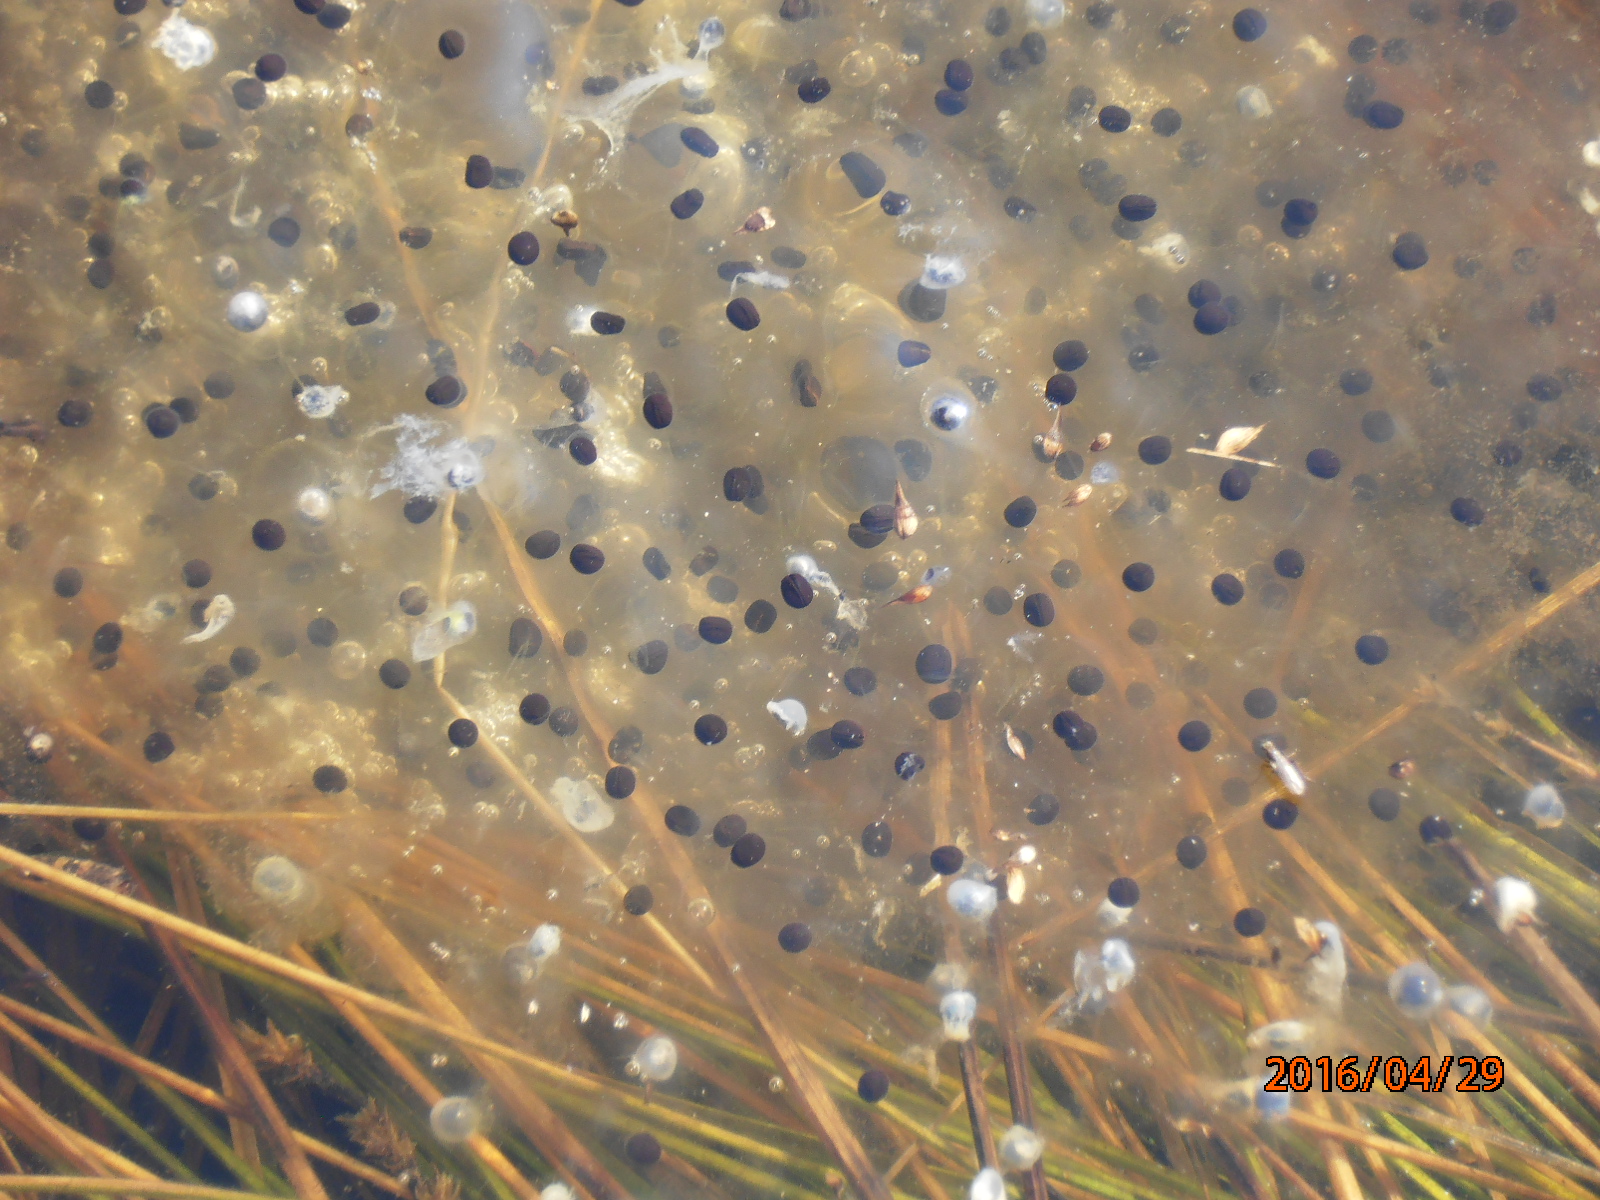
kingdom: Animalia
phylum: Chordata
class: Amphibia
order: Anura
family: Ranidae
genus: Rana
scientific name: Rana temporaria
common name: Common frog
